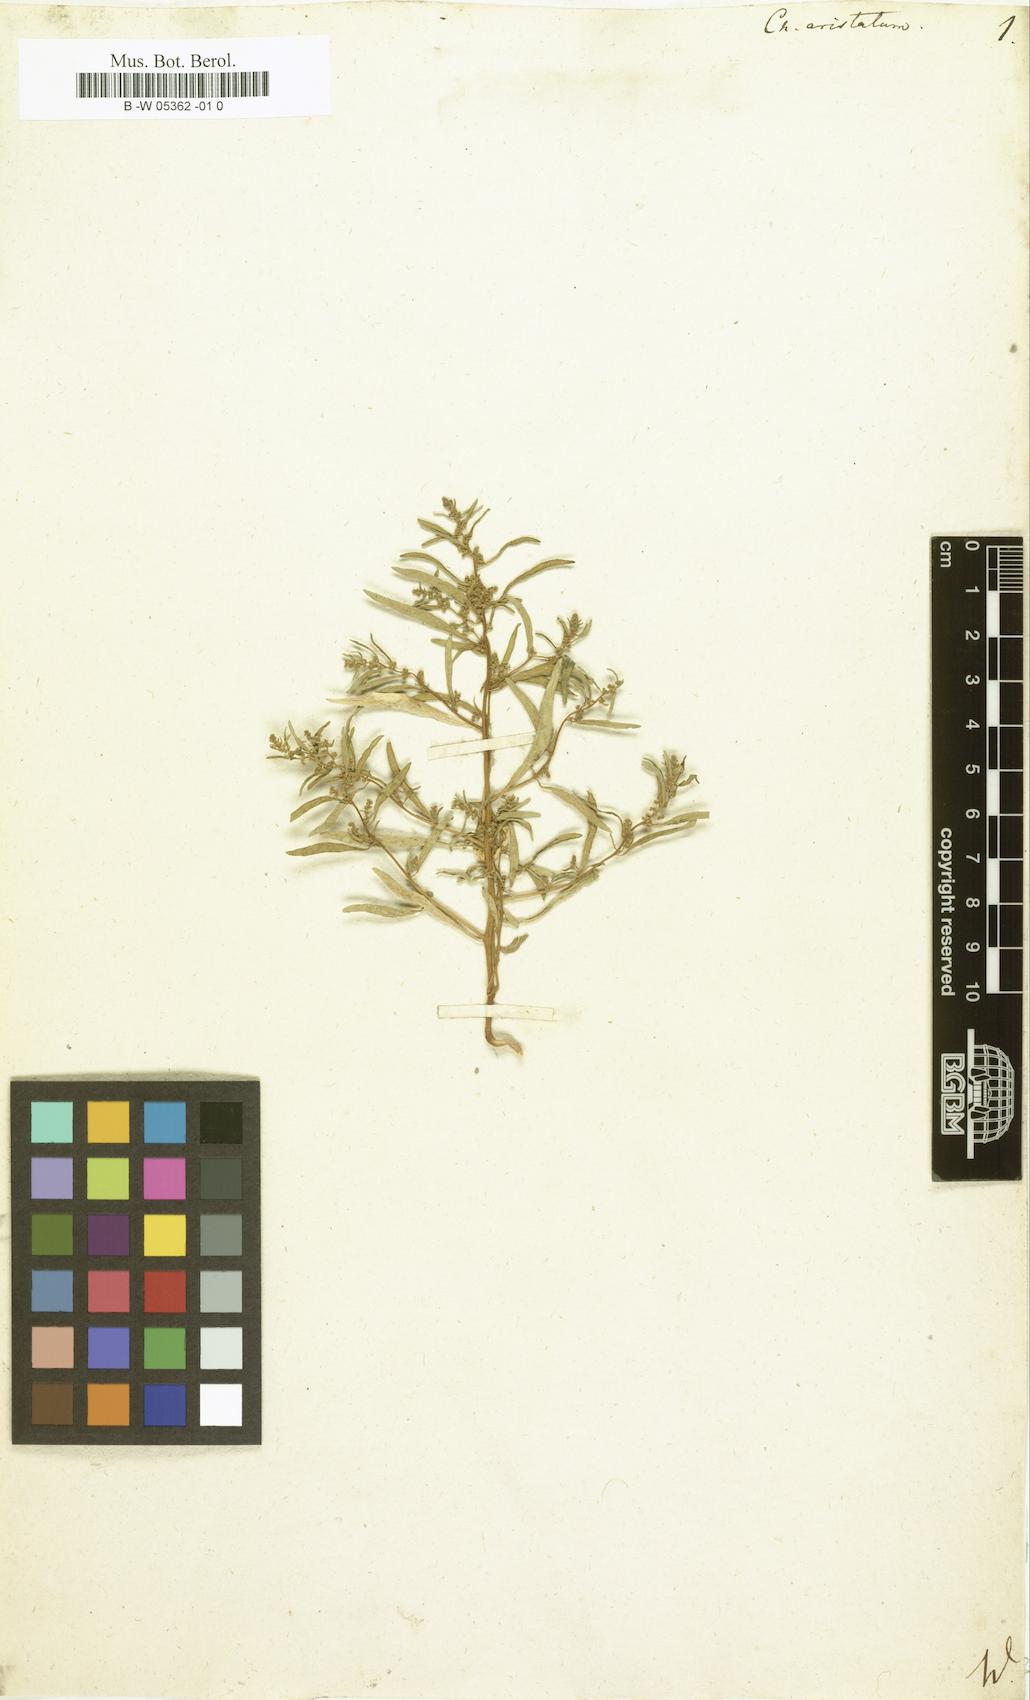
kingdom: Plantae
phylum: Tracheophyta
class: Magnoliopsida
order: Caryophyllales
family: Amaranthaceae
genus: Teloxys
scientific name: Teloxys aristata
